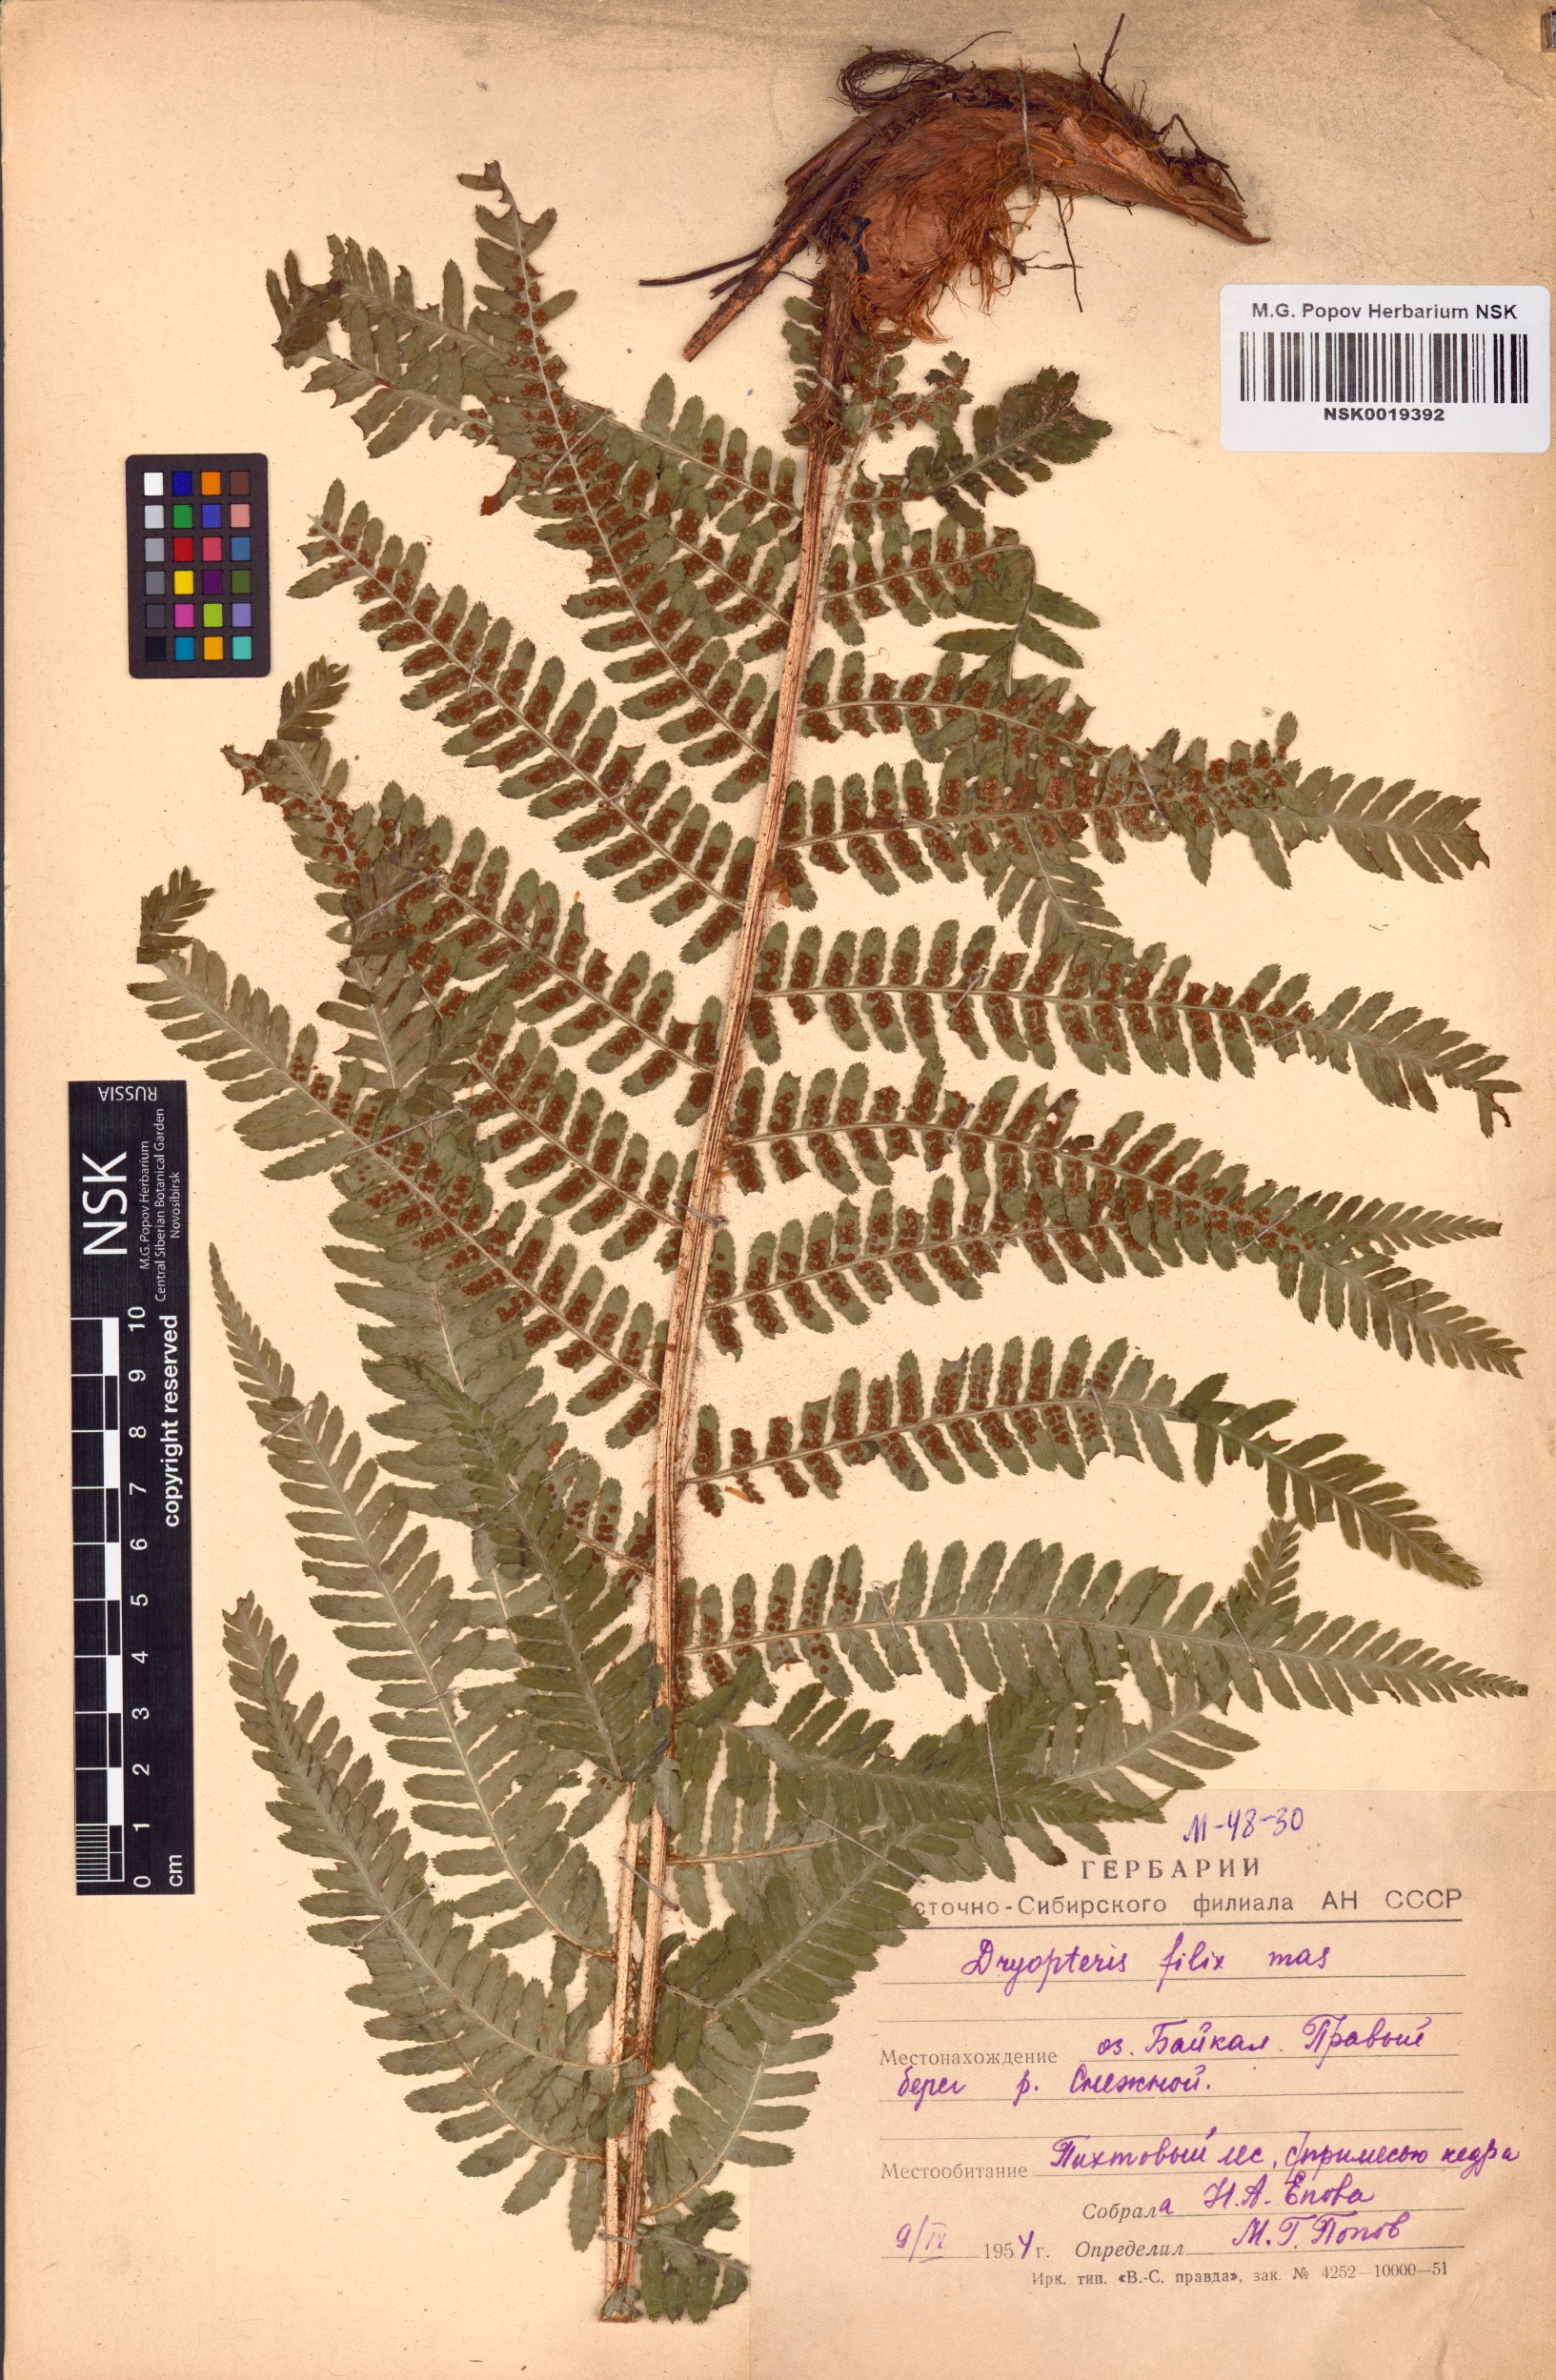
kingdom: Plantae
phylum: Tracheophyta
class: Polypodiopsida
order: Polypodiales
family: Dryopteridaceae
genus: Dryopteris
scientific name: Dryopteris filix-mas
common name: Male fern
